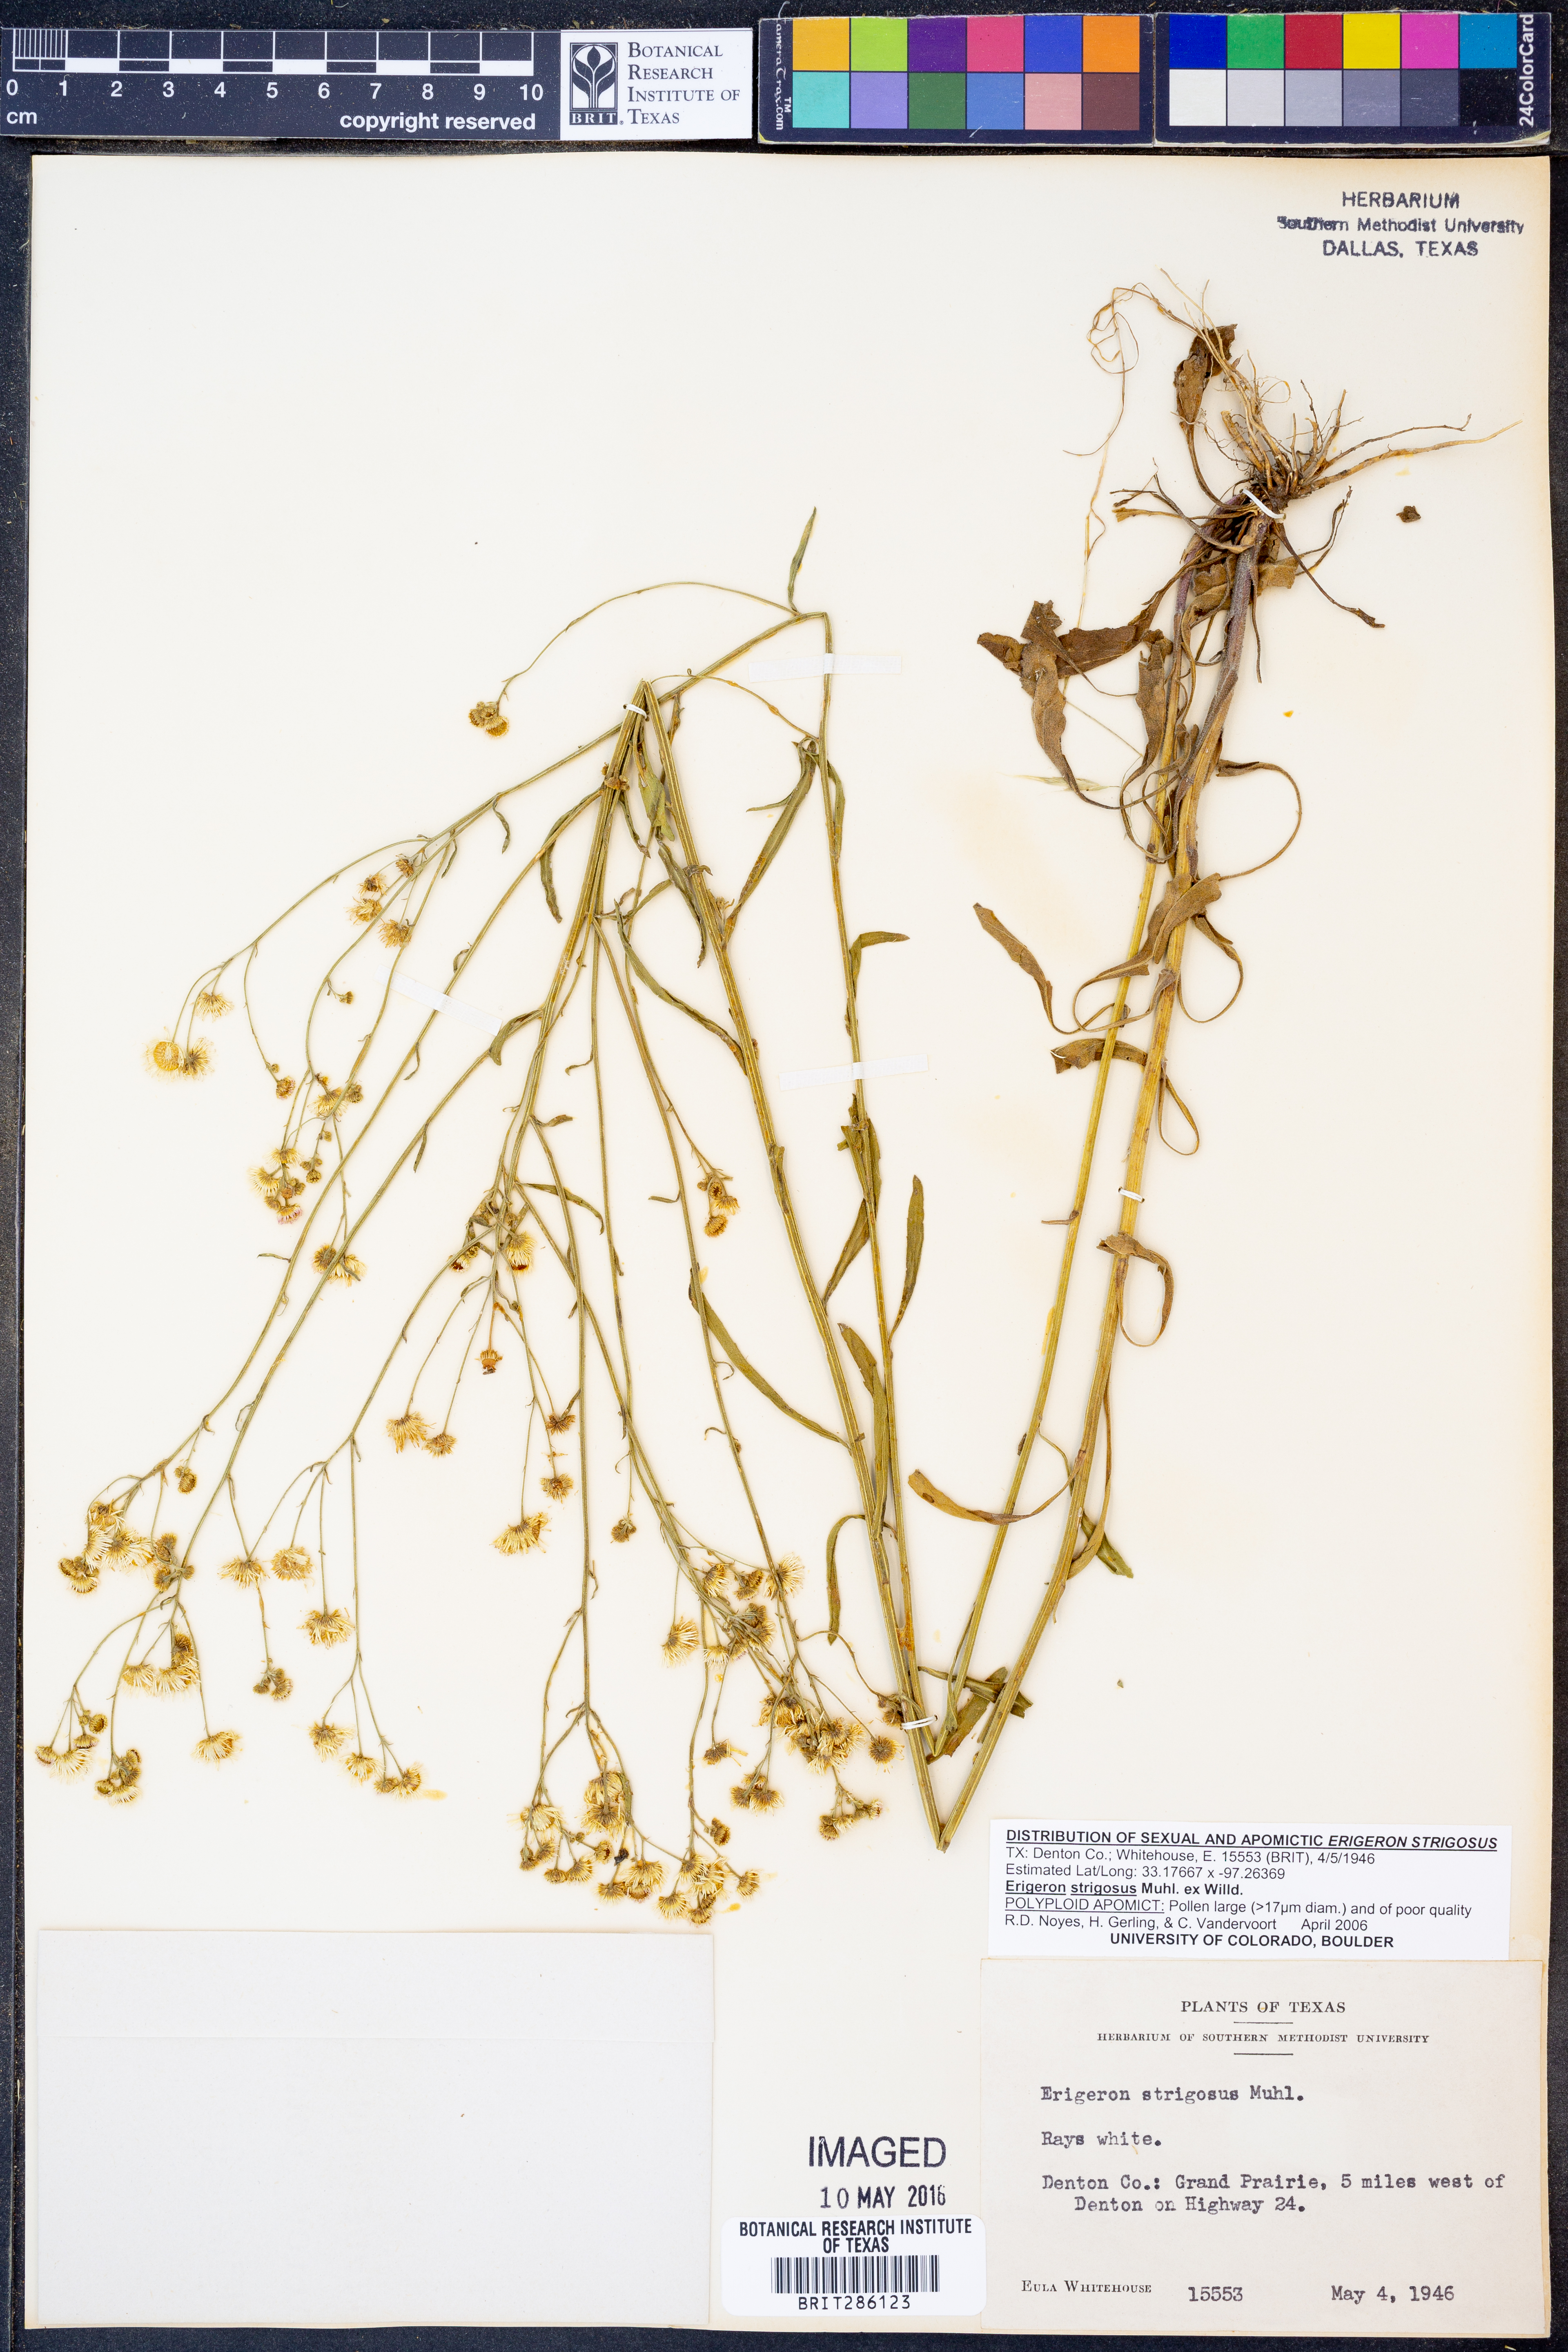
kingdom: Plantae
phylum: Tracheophyta
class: Magnoliopsida
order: Asterales
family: Asteraceae
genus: Erigeron
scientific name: Erigeron strigosus
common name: Common eastern fleabane
